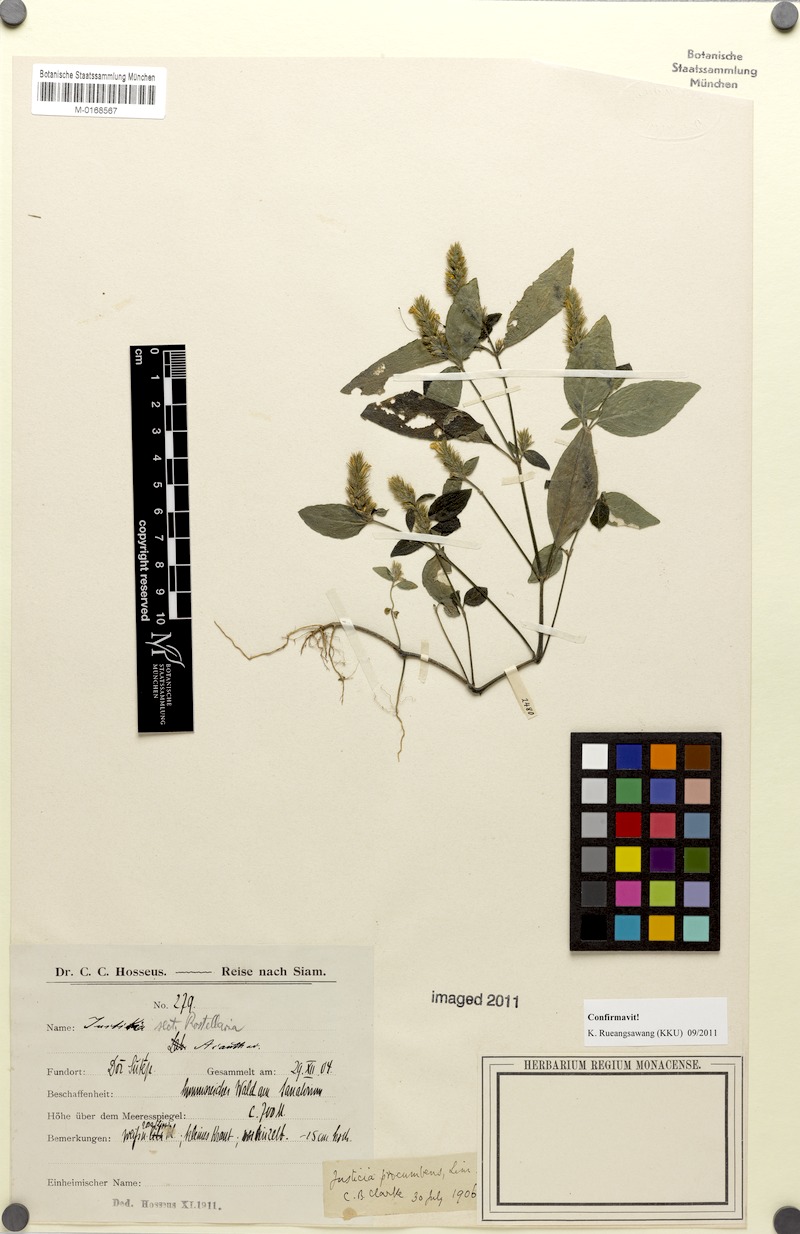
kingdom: Plantae
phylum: Tracheophyta
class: Magnoliopsida
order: Lamiales
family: Acanthaceae
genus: Rostellularia
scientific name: Rostellularia procumbens
